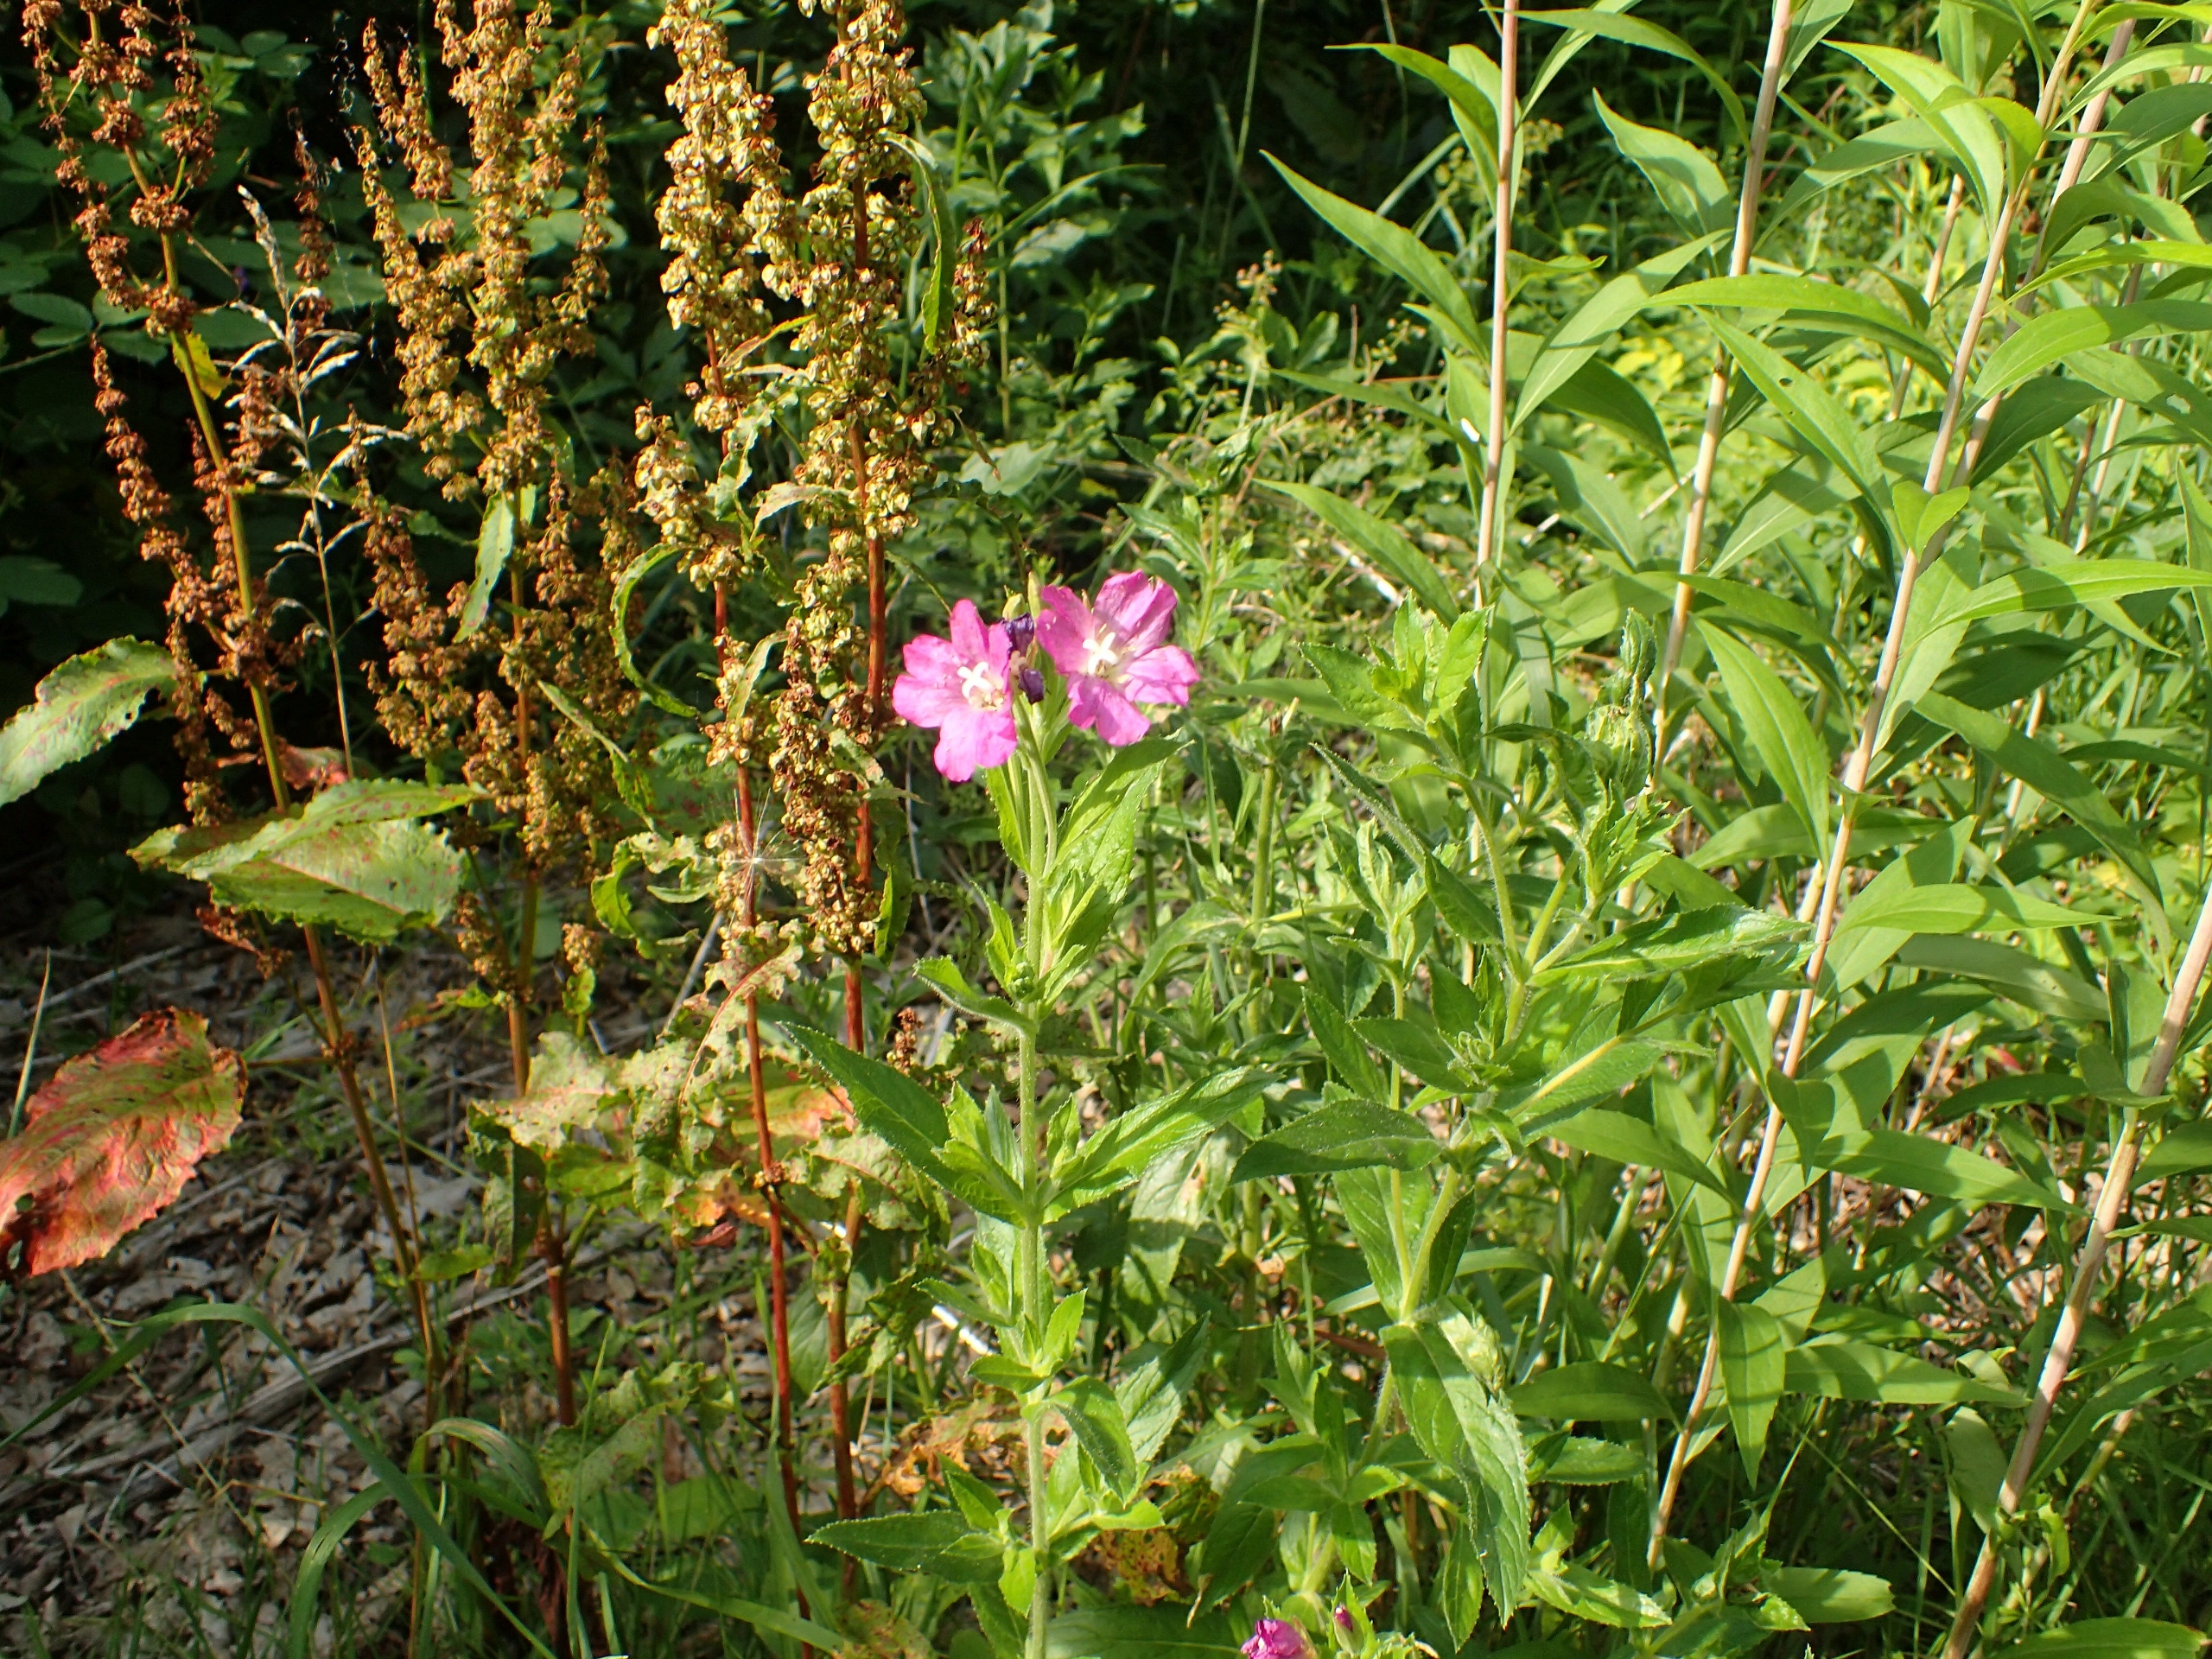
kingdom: Plantae
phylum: Tracheophyta
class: Magnoliopsida
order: Myrtales
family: Onagraceae
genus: Epilobium
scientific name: Epilobium hirsutum
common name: Lådden dueurt
